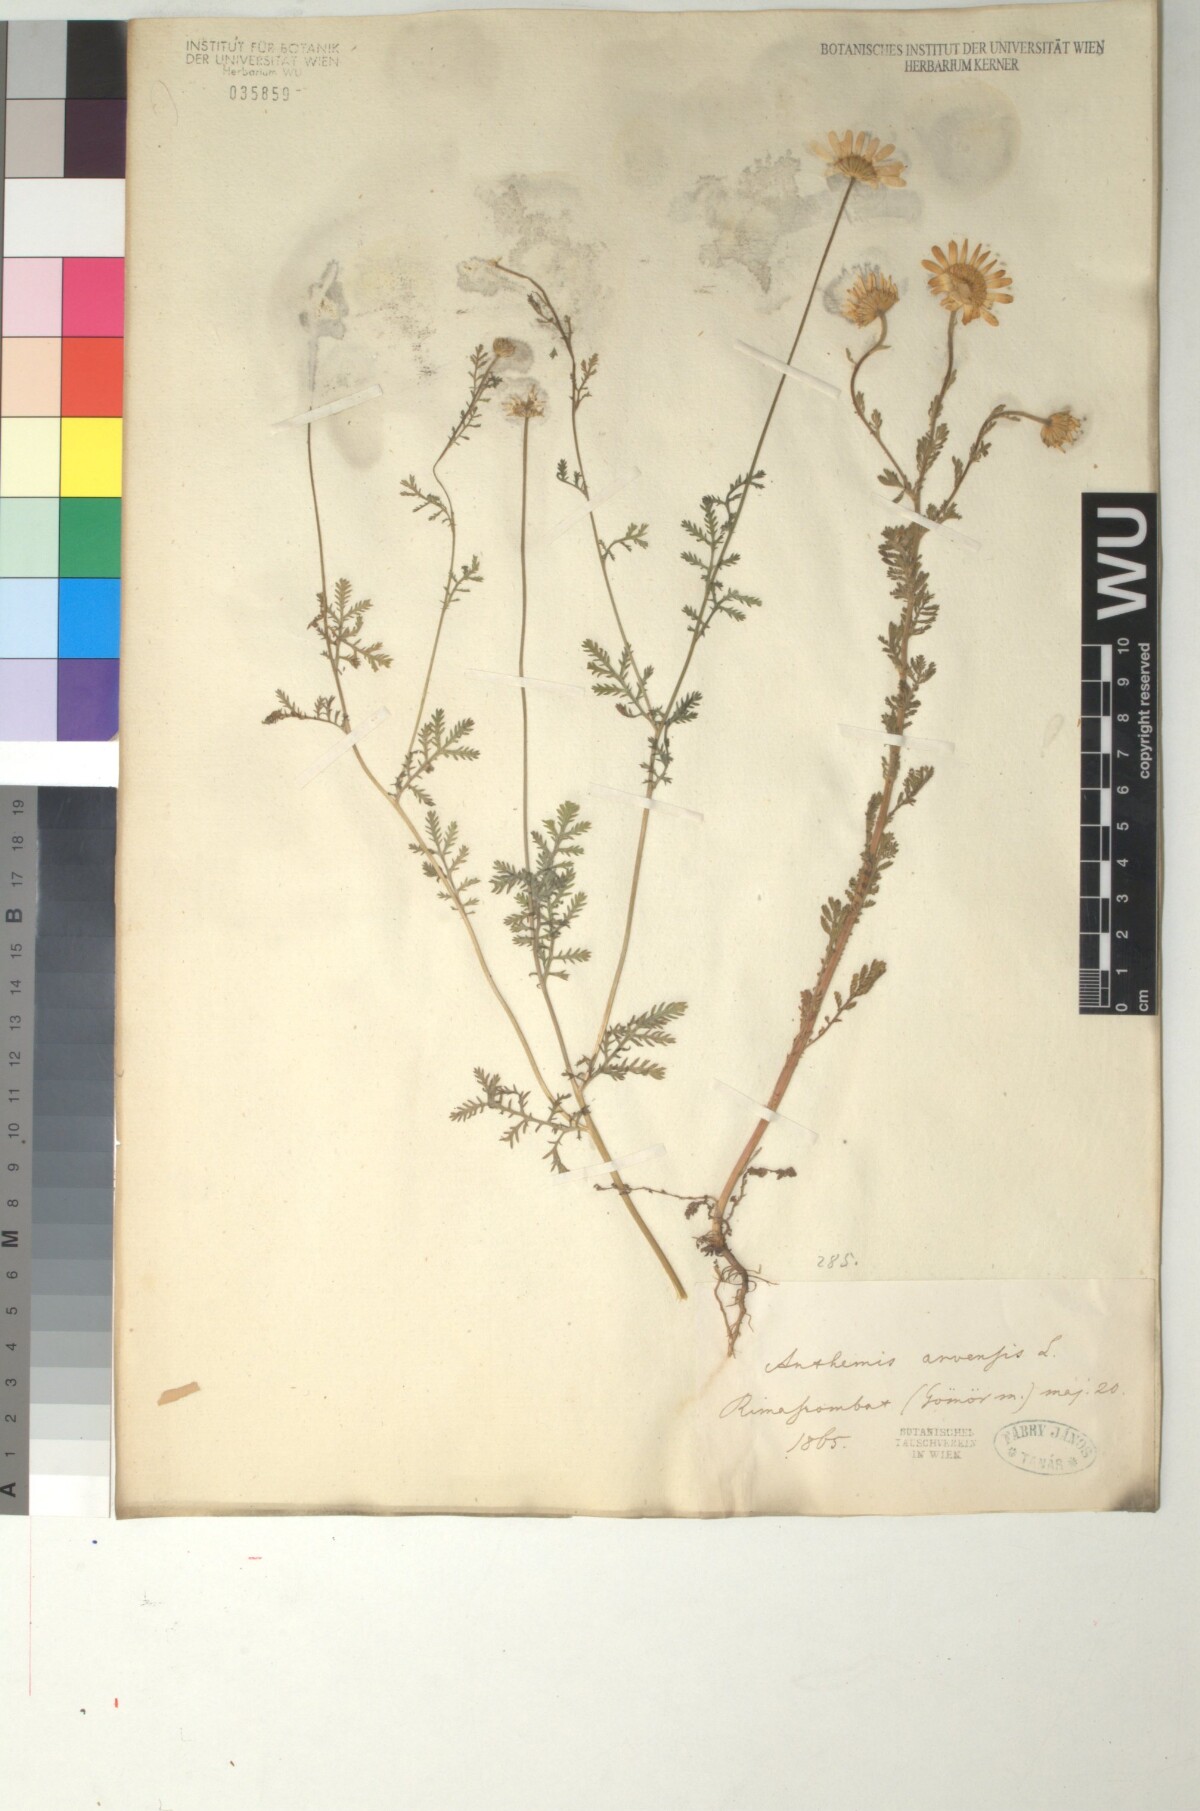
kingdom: Plantae
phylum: Tracheophyta
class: Magnoliopsida
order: Asterales
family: Asteraceae
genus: Anthemis
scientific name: Anthemis arvensis
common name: Corn chamomile
